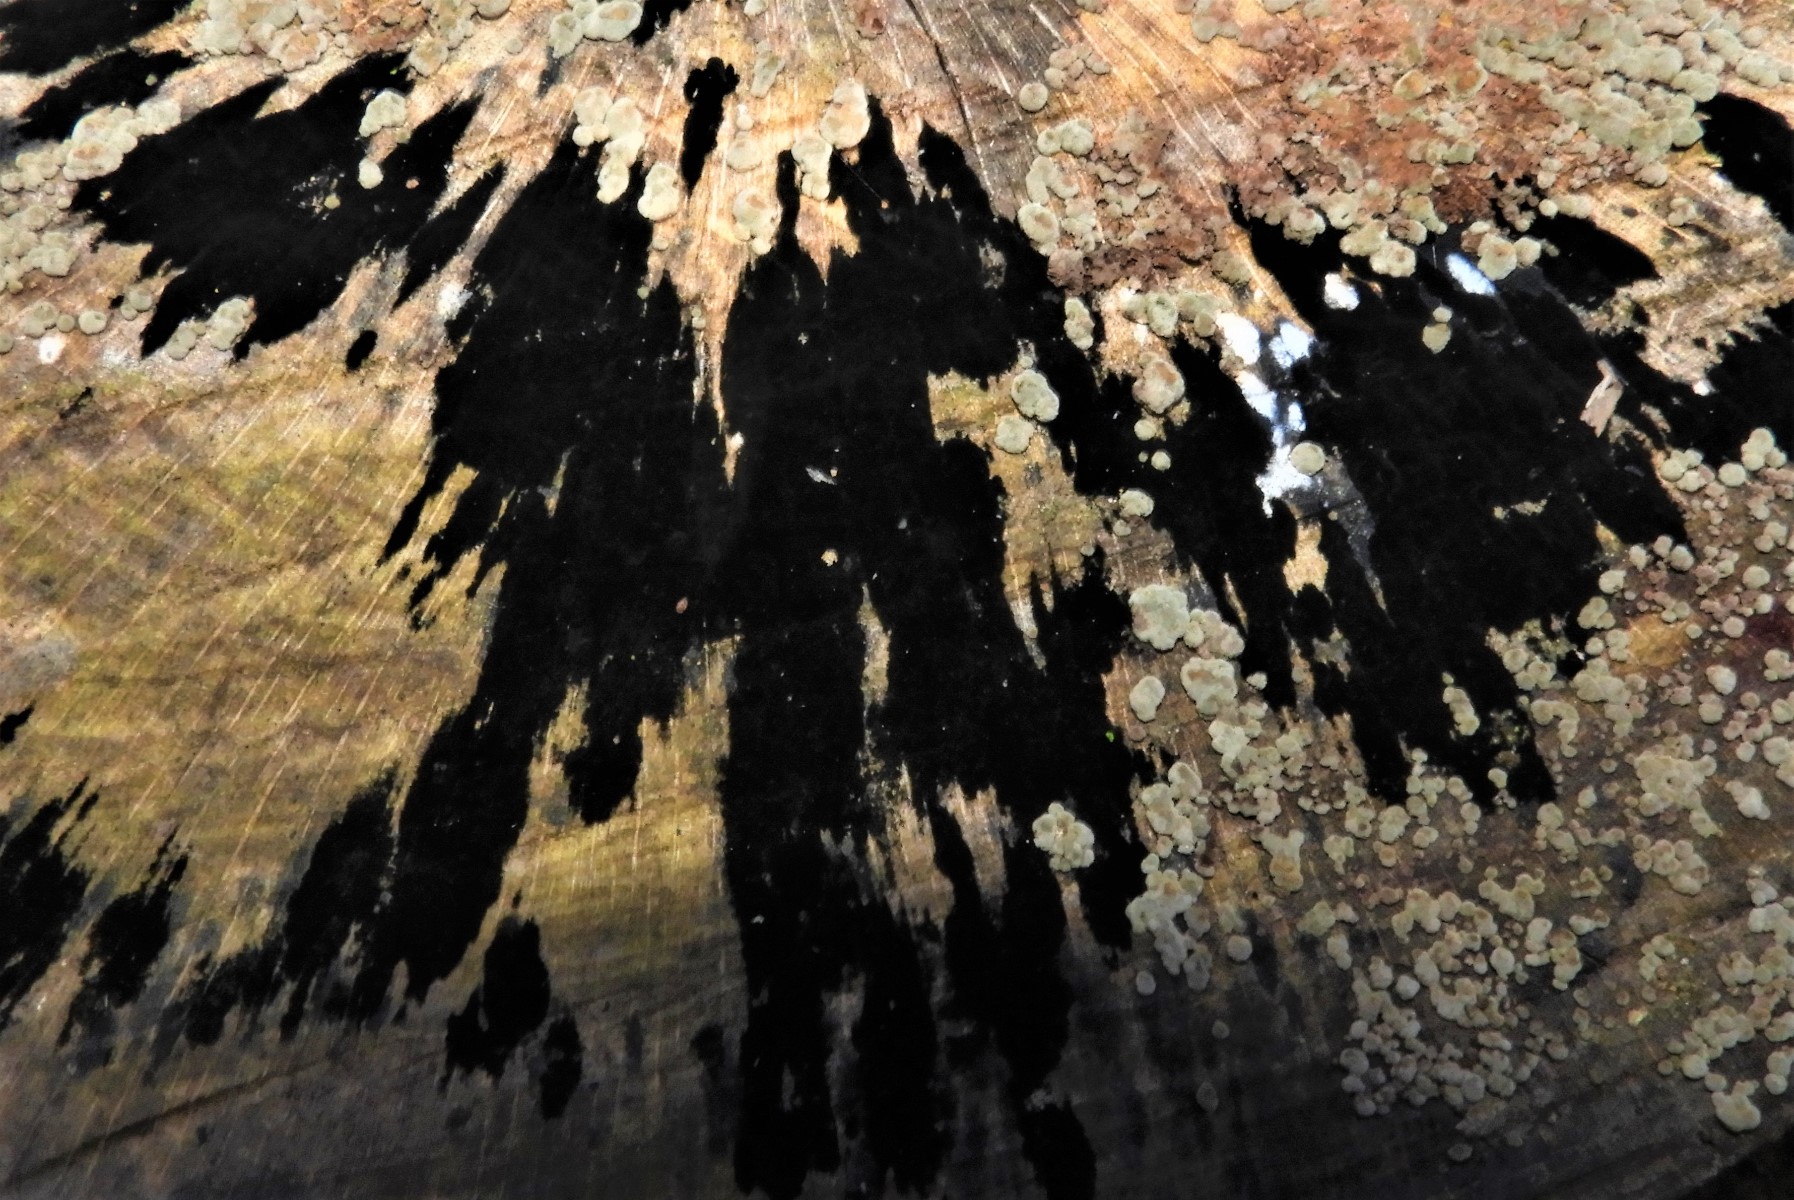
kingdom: Fungi
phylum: Ascomycota
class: Leotiomycetes
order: Helotiales
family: Helotiaceae
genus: Bispora
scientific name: Bispora pallescens
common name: måtte-snitskive
